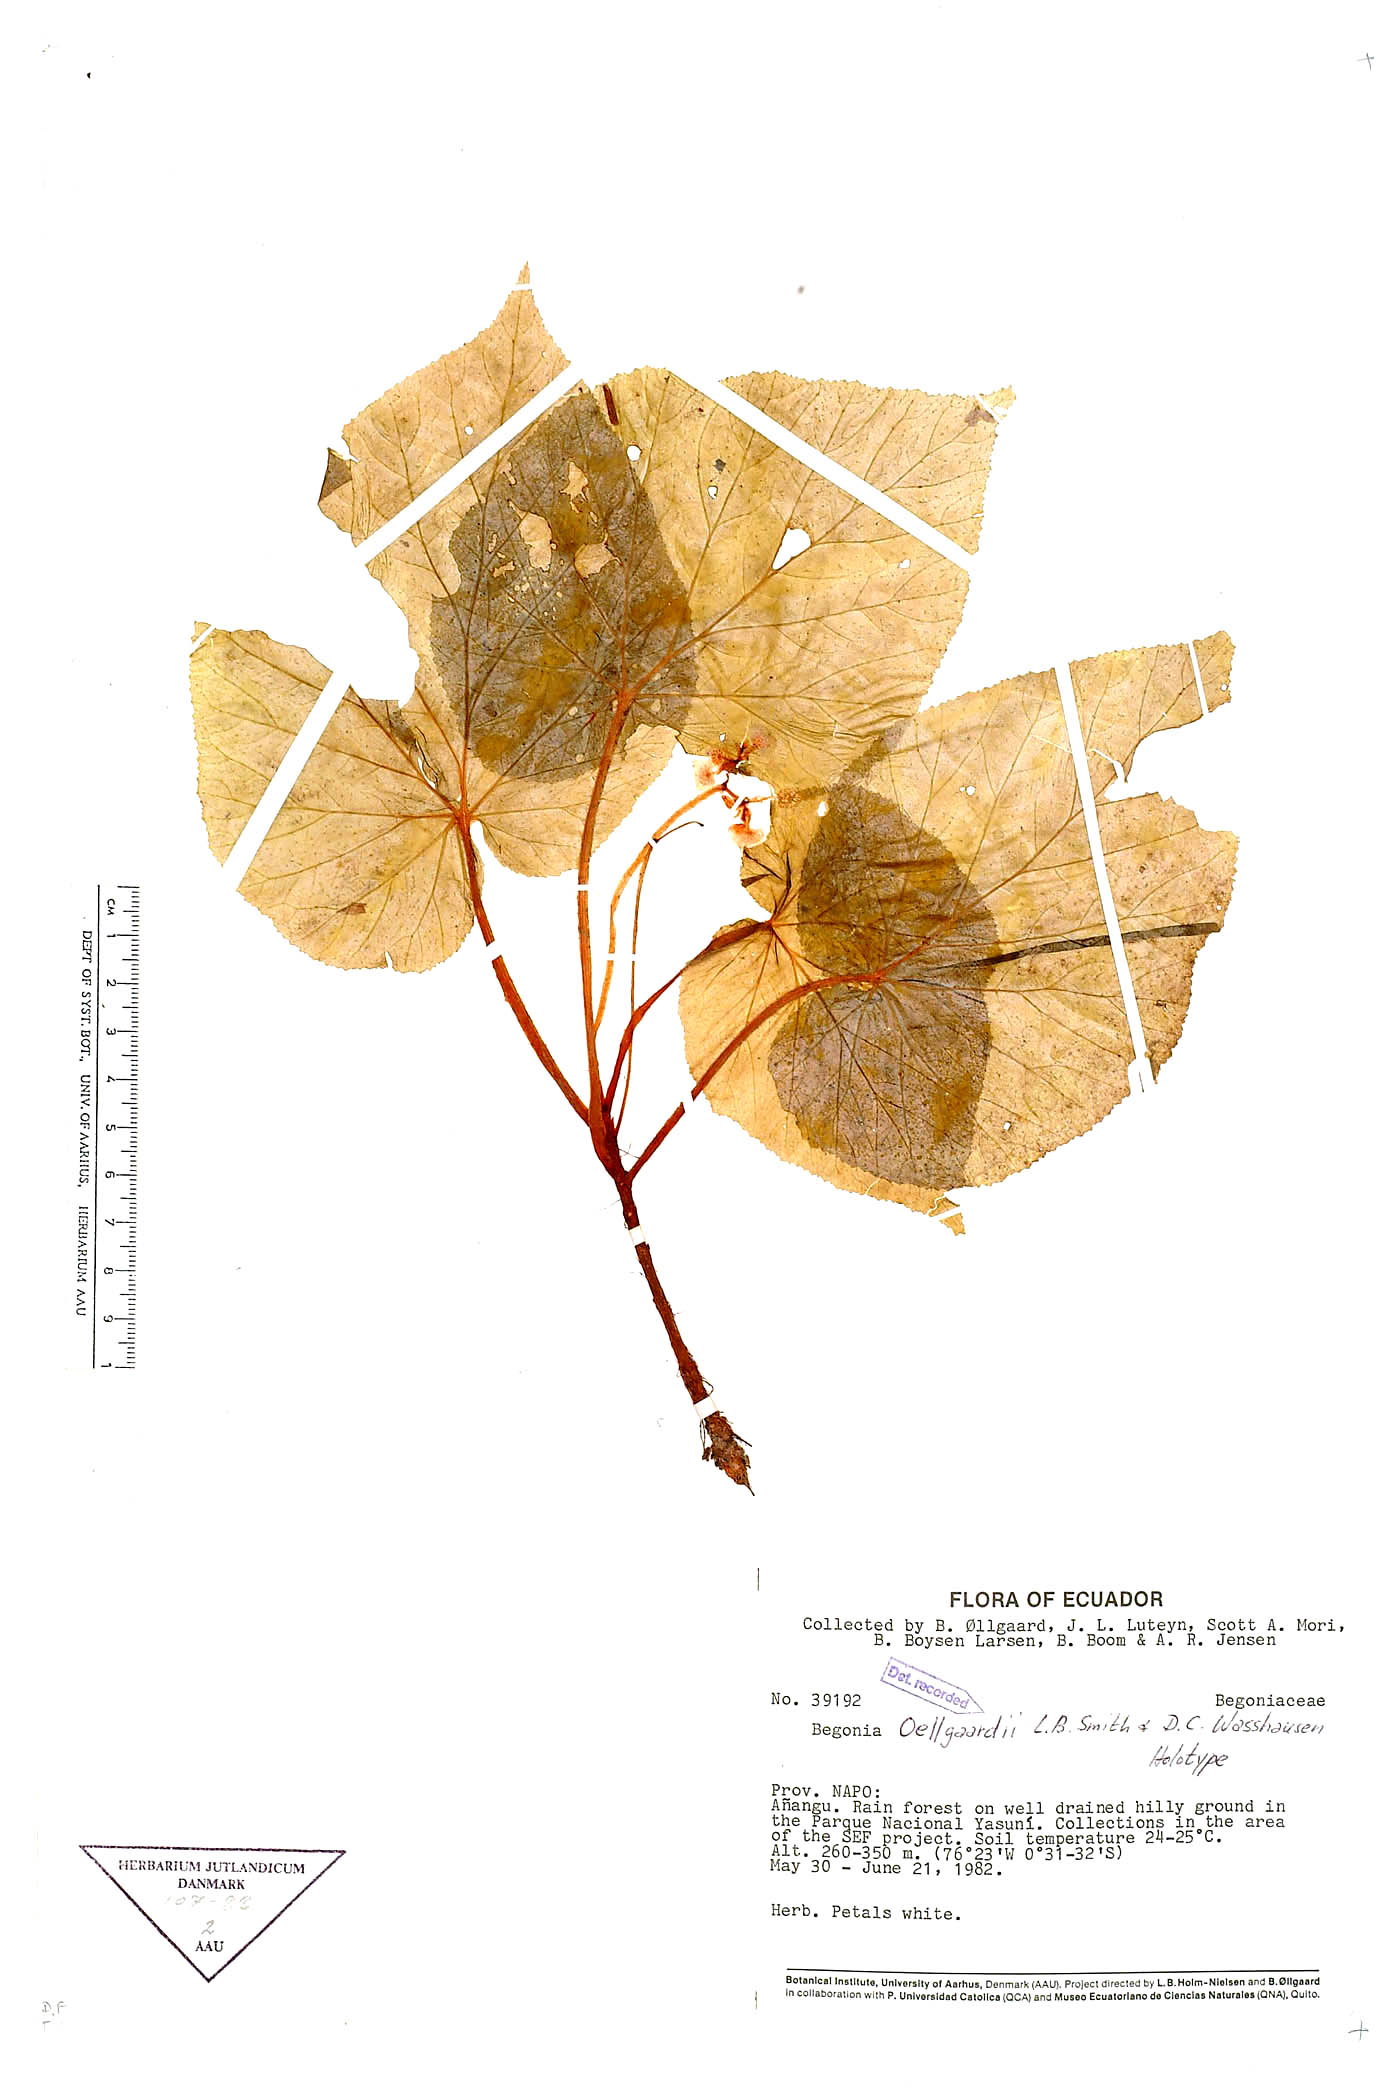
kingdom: Plantae
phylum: Tracheophyta
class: Magnoliopsida
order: Cucurbitales
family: Begoniaceae
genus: Begonia
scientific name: Begonia oellgaardii
